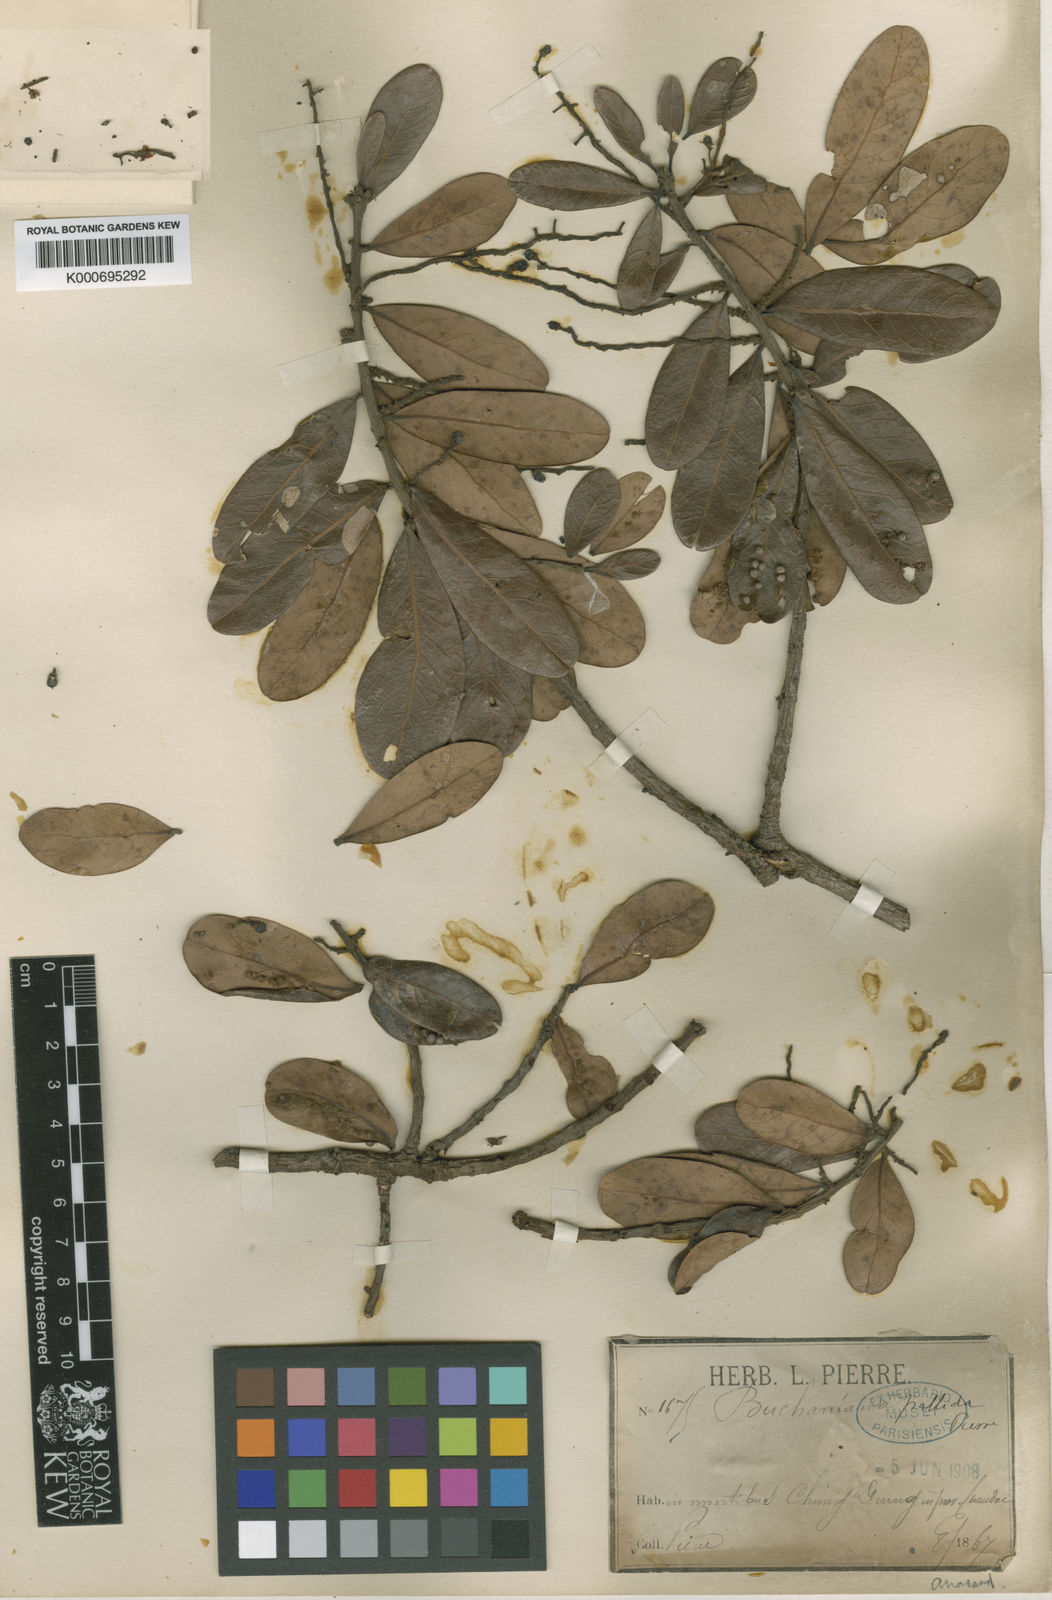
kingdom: Plantae
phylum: Tracheophyta
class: Magnoliopsida
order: Sapindales
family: Anacardiaceae
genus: Buchanania
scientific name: Buchanania siamensis
